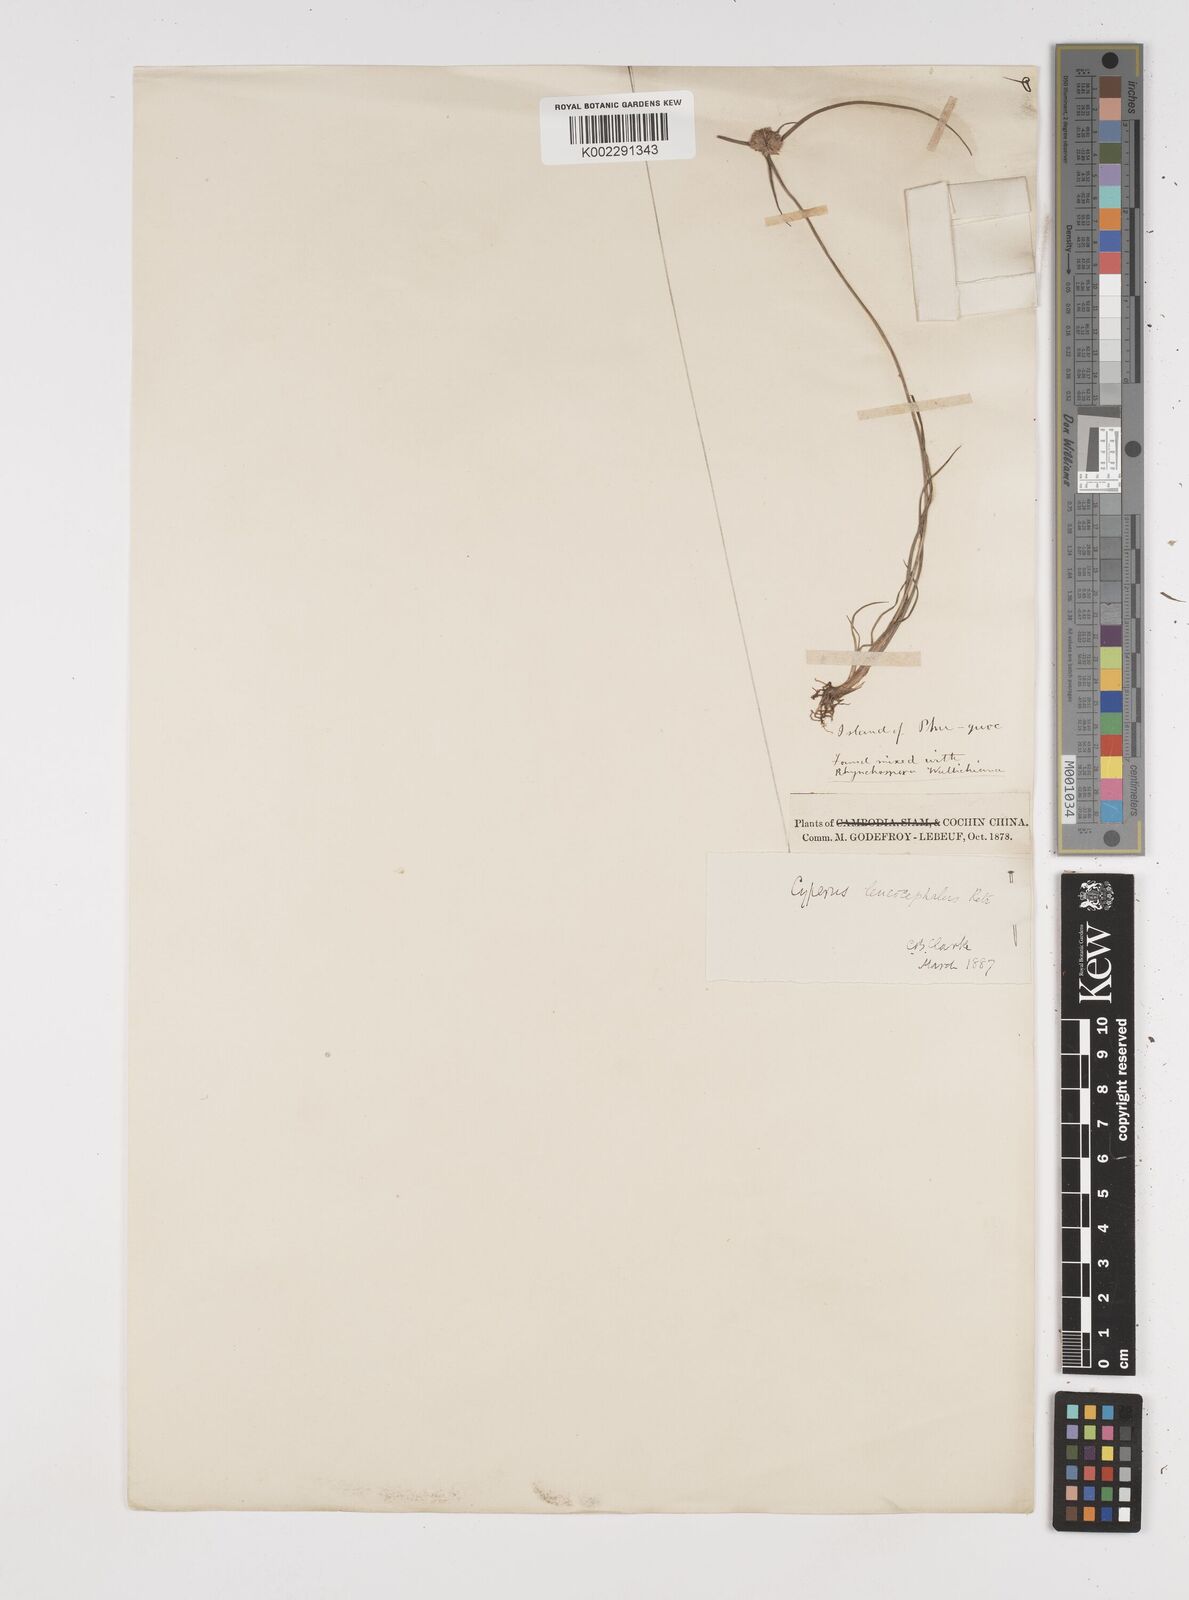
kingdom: Plantae
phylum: Tracheophyta
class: Liliopsida
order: Poales
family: Cyperaceae
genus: Cyperus
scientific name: Cyperus leucocephalus
